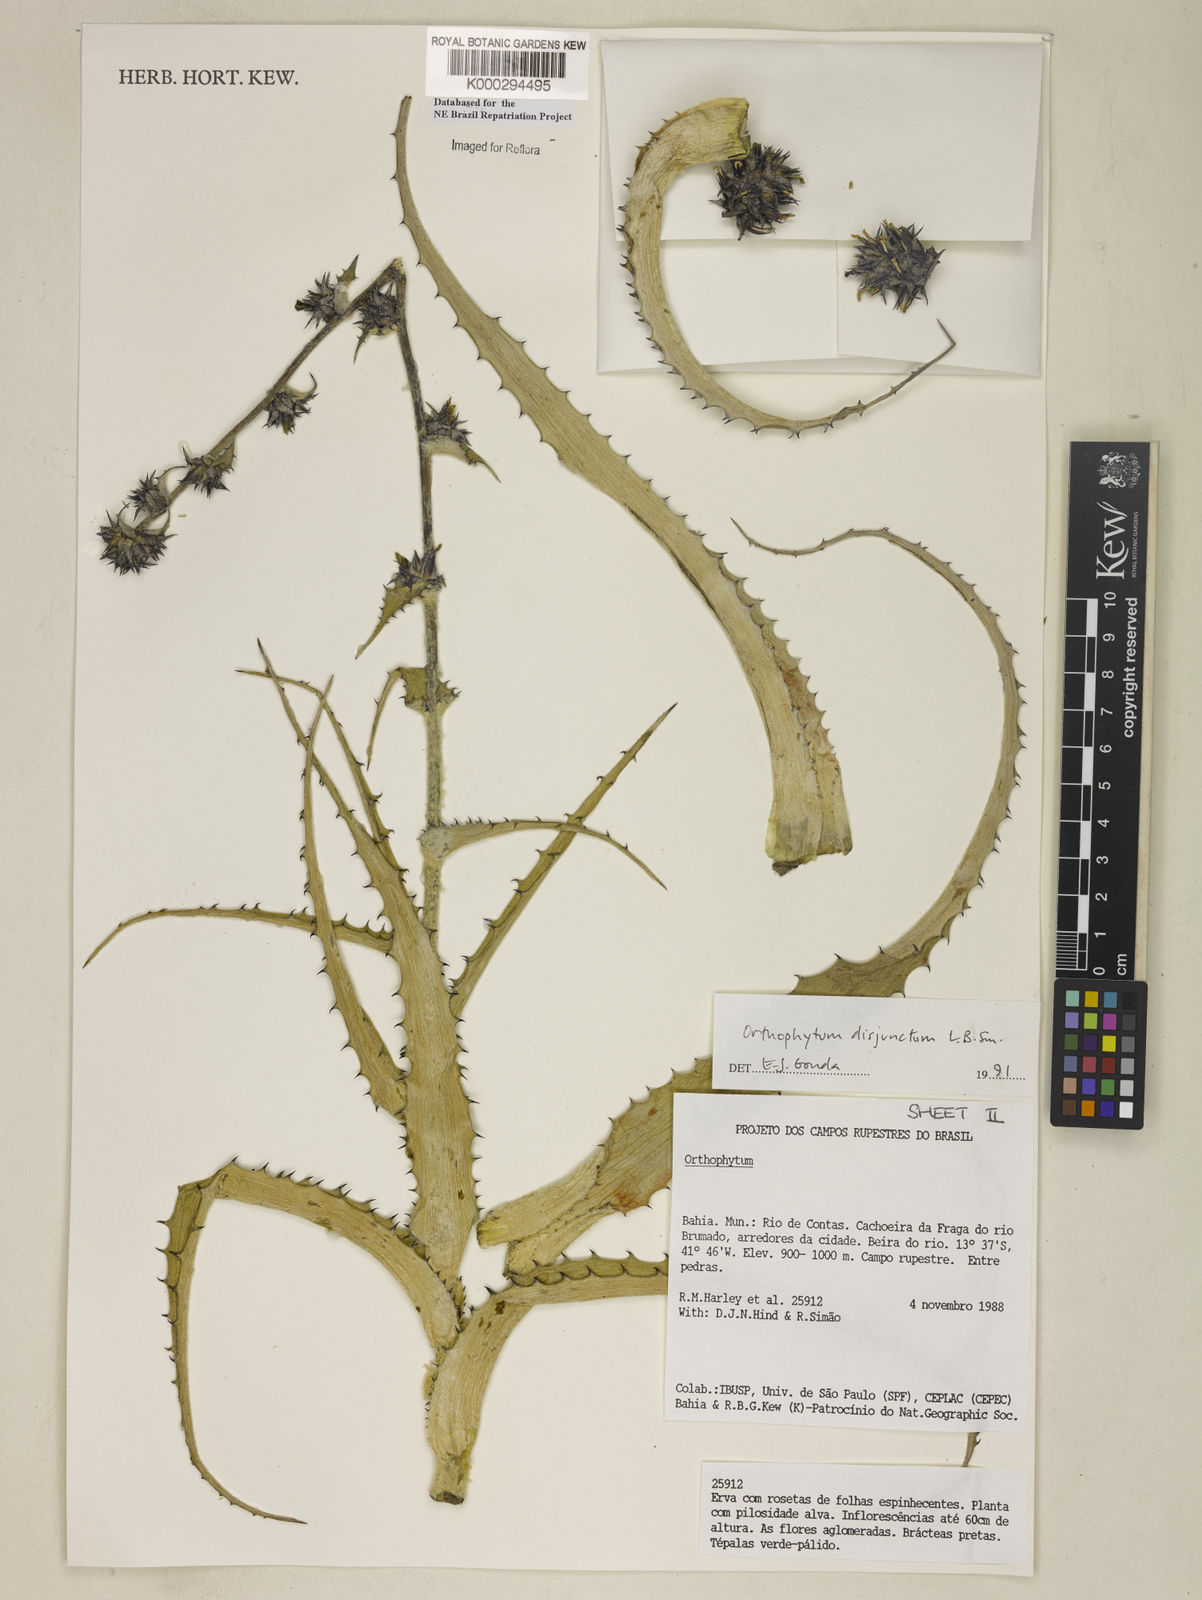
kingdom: Plantae
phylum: Tracheophyta
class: Liliopsida
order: Poales
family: Bromeliaceae
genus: Orthophytum
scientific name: Orthophytum disjunctum
